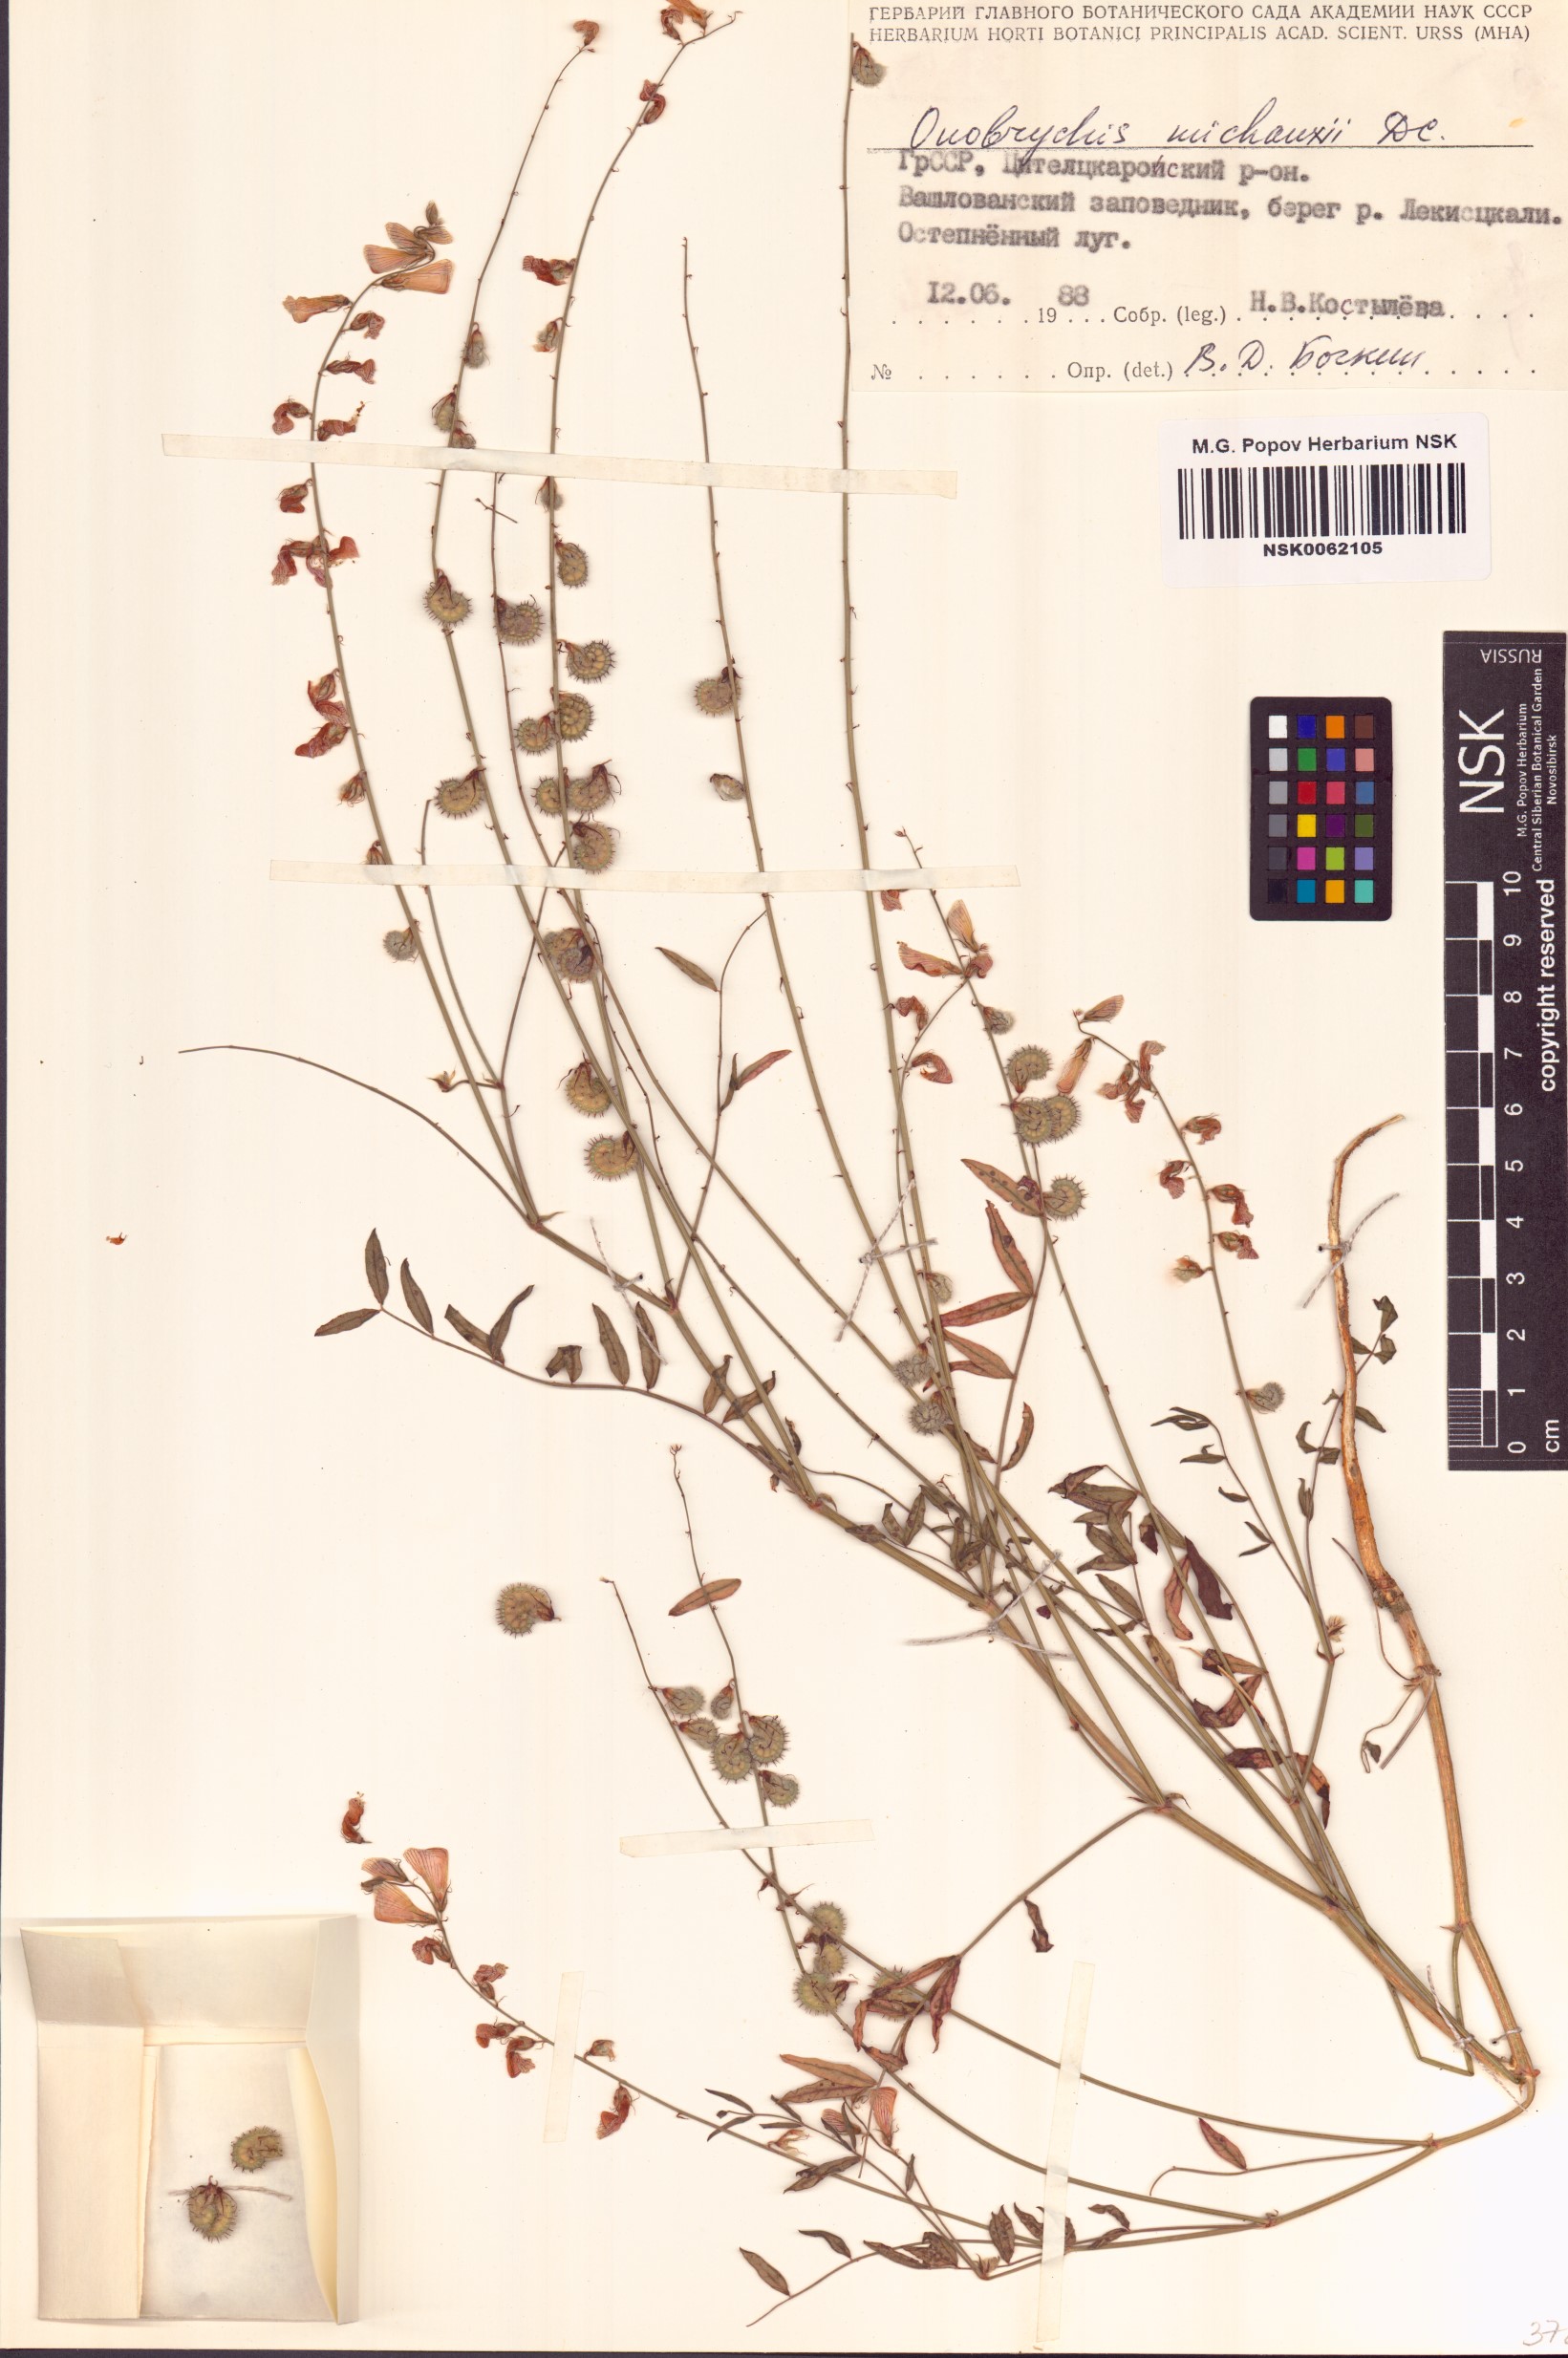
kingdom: Plantae
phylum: Tracheophyta
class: Magnoliopsida
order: Fabales
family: Fabaceae
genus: Onobrychis
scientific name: Onobrychis michauxii
